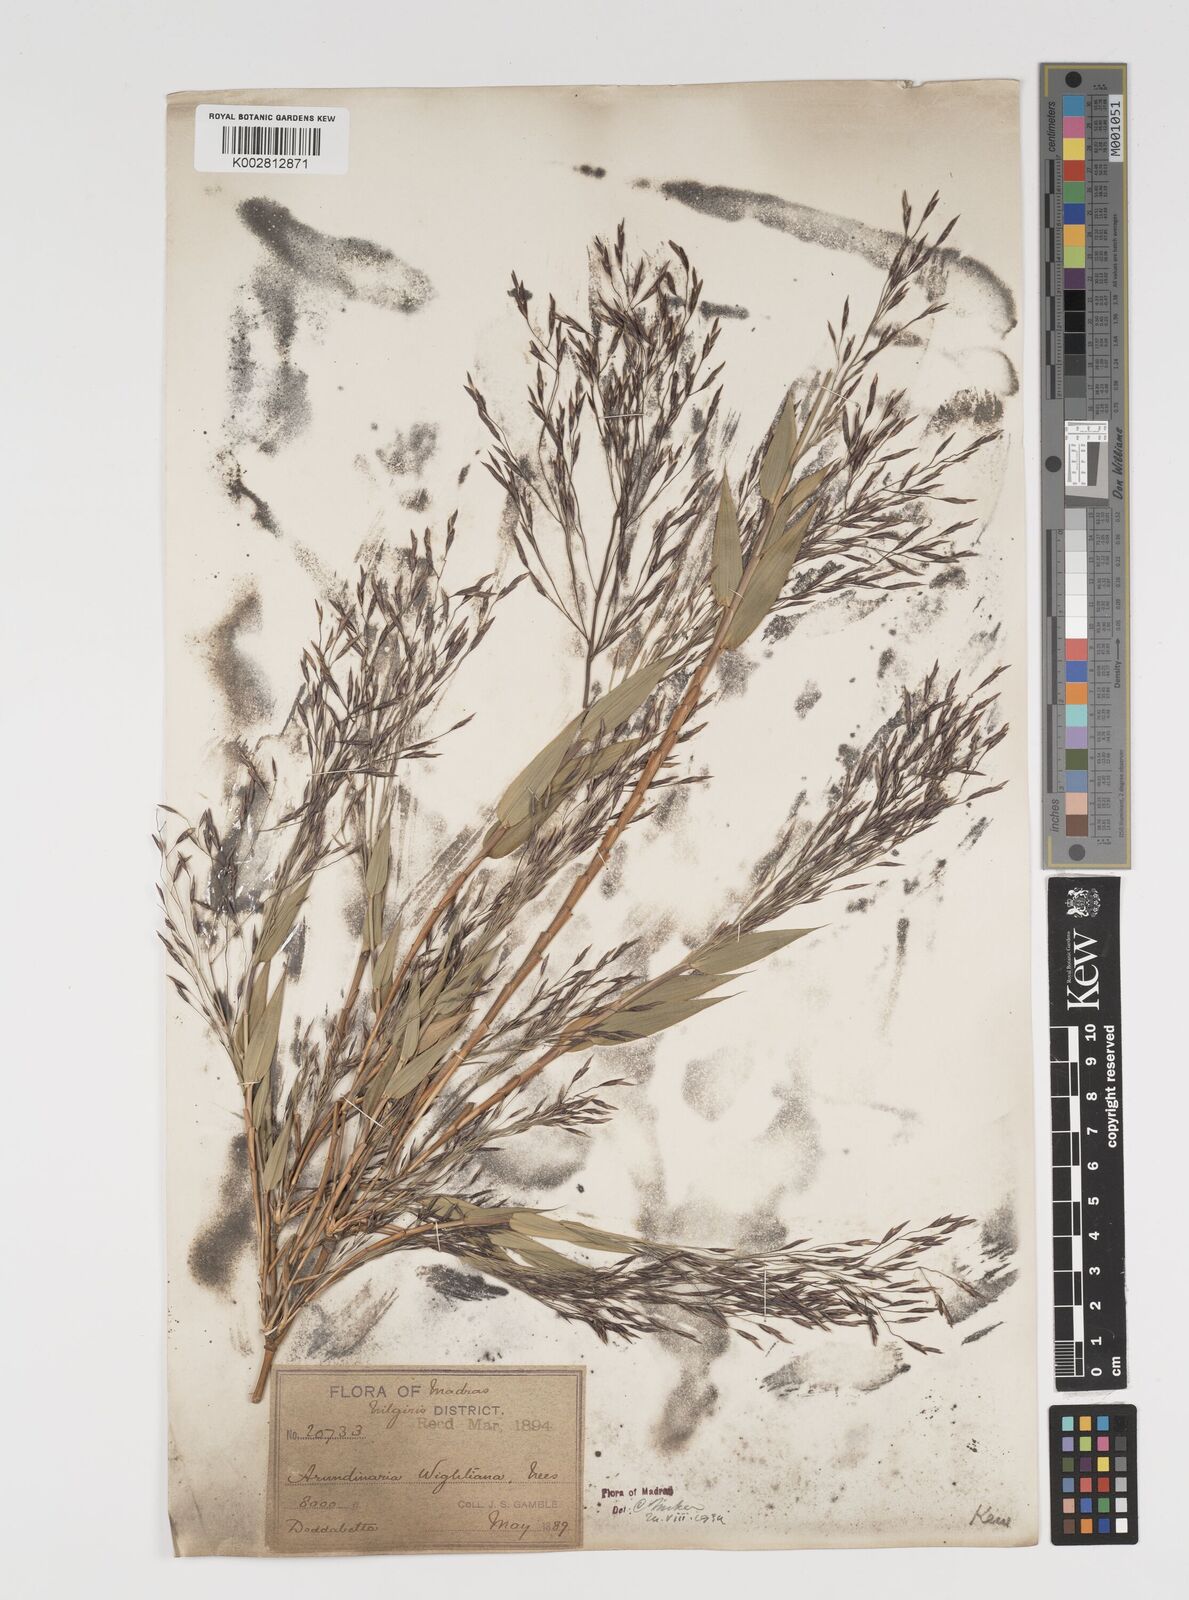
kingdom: Plantae
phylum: Tracheophyta
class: Liliopsida
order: Poales
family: Poaceae
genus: Kuruna
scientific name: Kuruna wightiana
